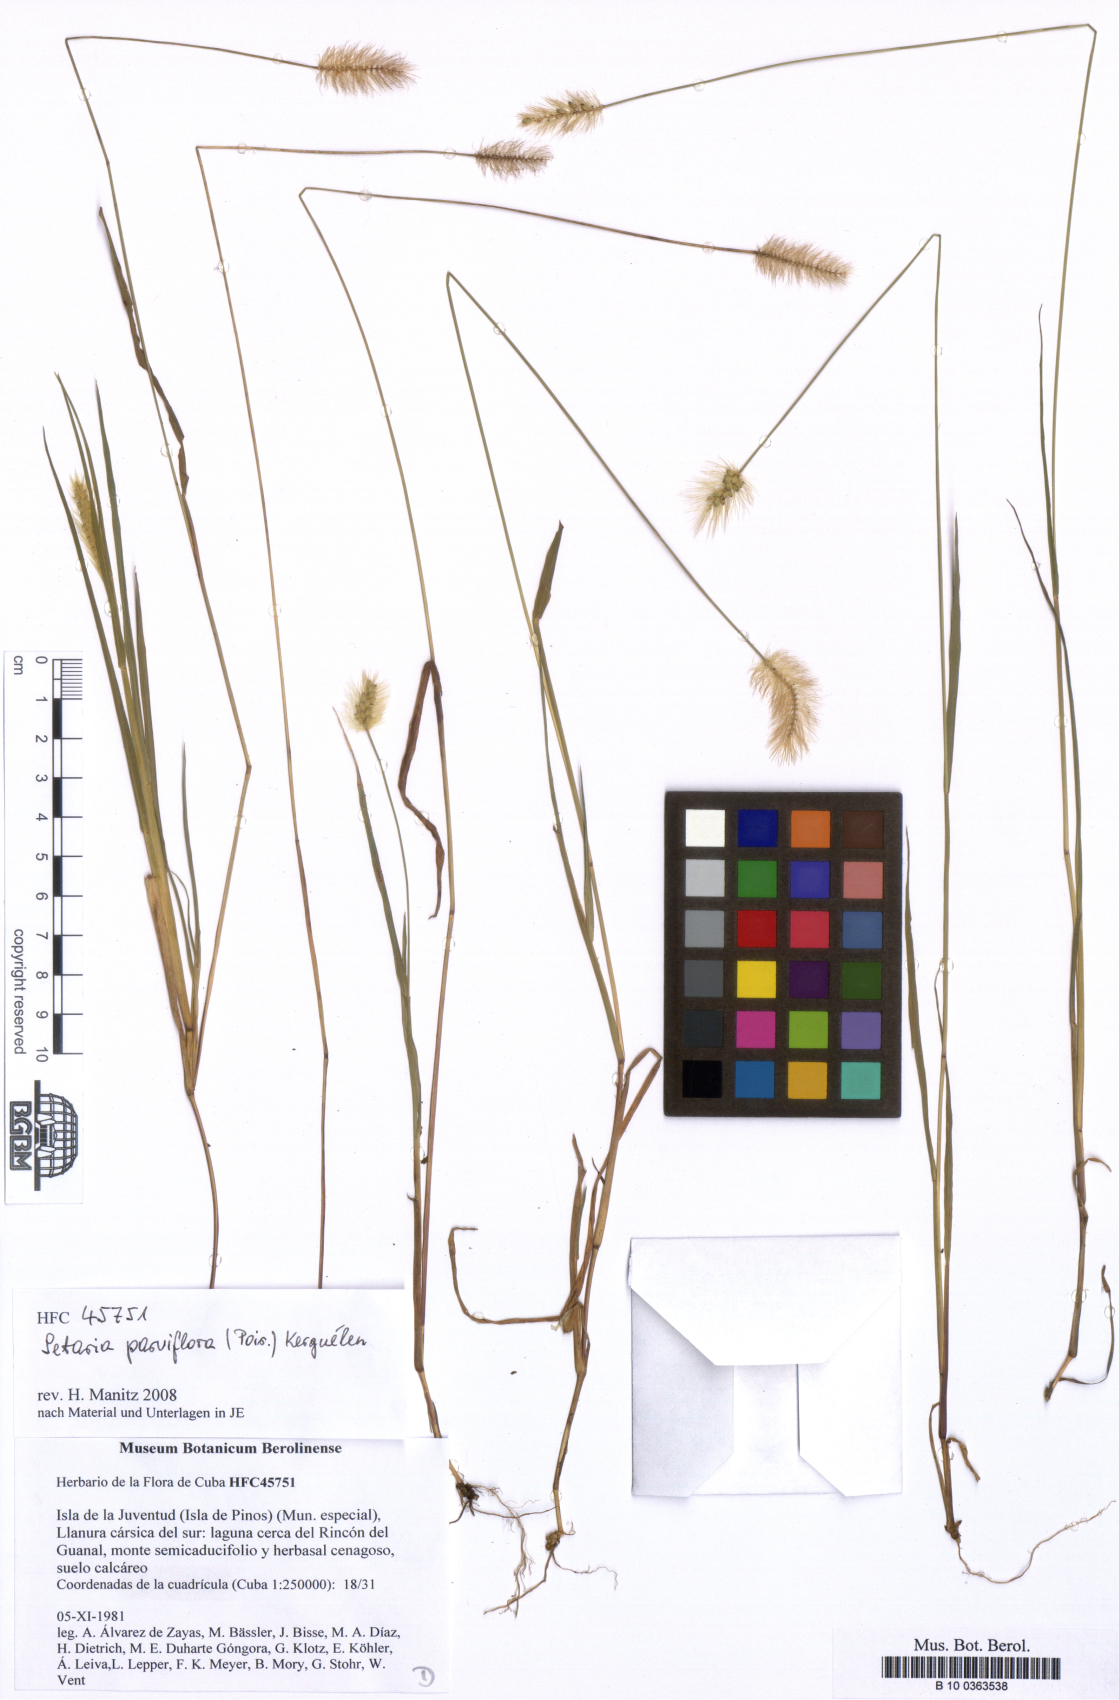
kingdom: Plantae
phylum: Tracheophyta
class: Liliopsida
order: Poales
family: Poaceae
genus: Setaria
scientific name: Setaria parviflora
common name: Knotroot bristle-grass
